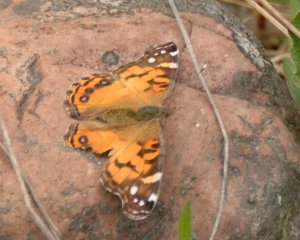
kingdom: Animalia
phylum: Arthropoda
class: Insecta
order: Lepidoptera
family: Nymphalidae
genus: Vanessa
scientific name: Vanessa virginiensis
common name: American Lady
